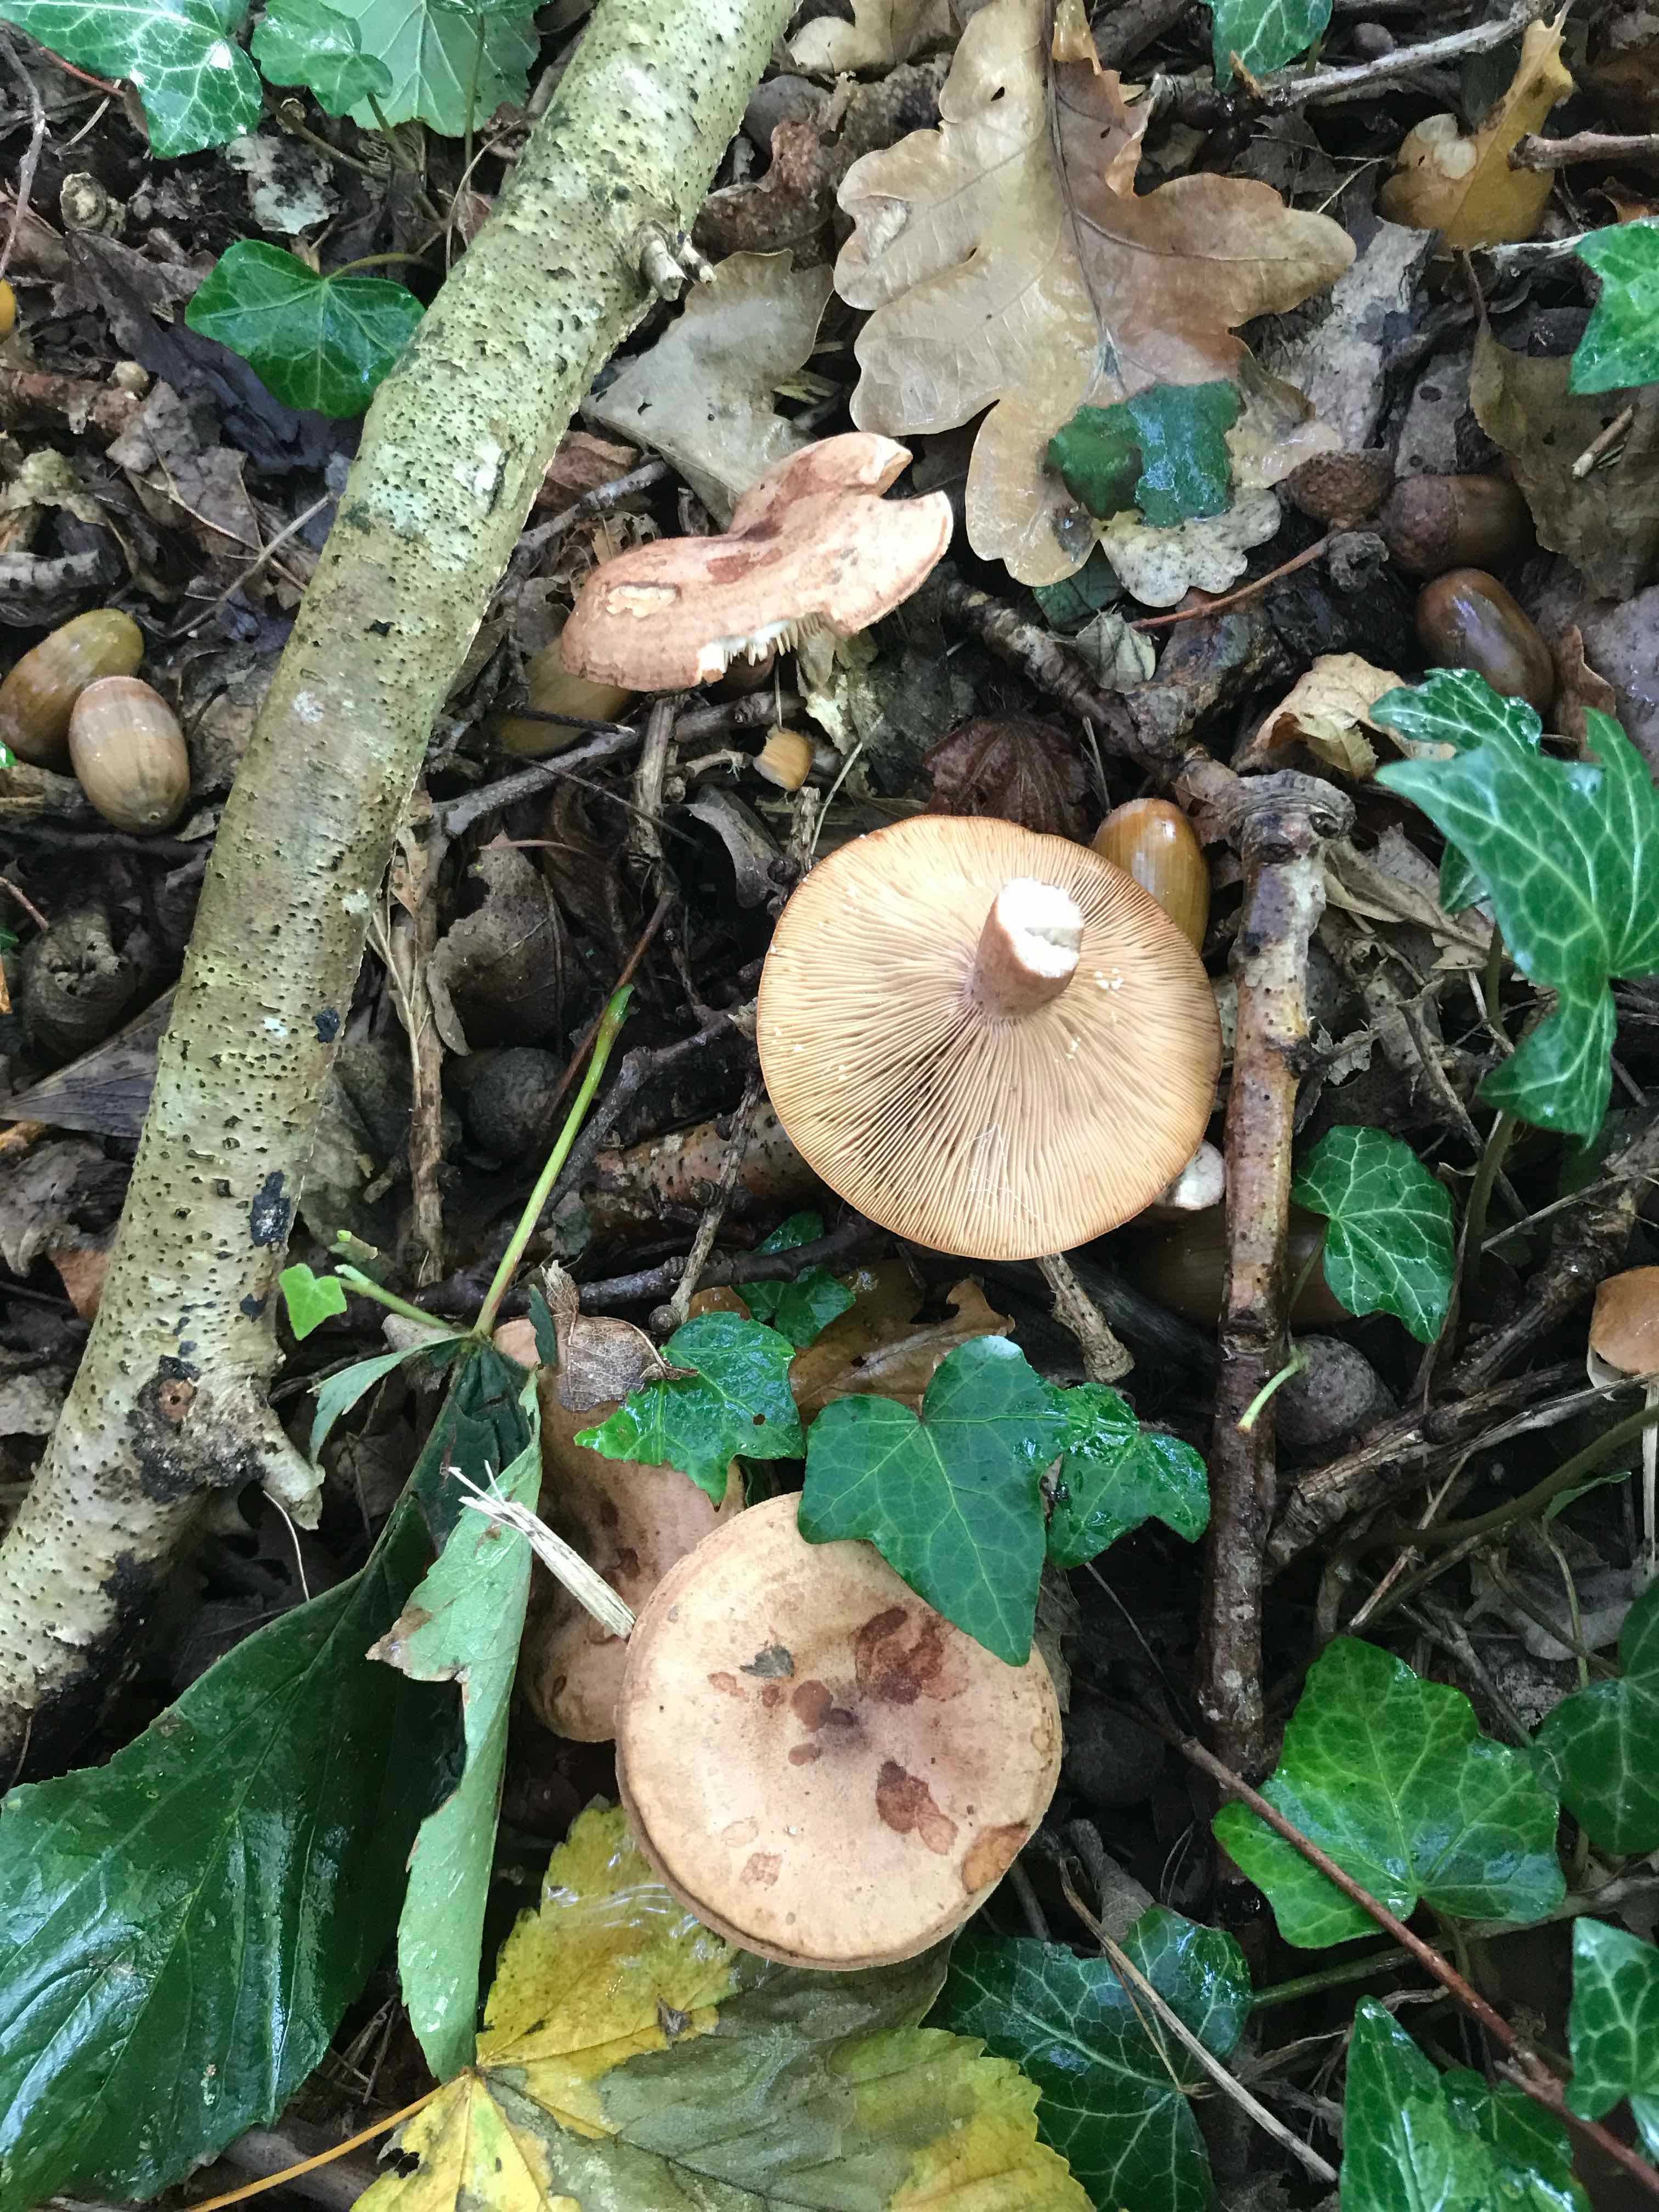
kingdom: Fungi
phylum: Basidiomycota
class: Agaricomycetes
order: Russulales
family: Russulaceae
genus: Lactarius
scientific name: Lactarius quietus
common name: ege-mælkehat
